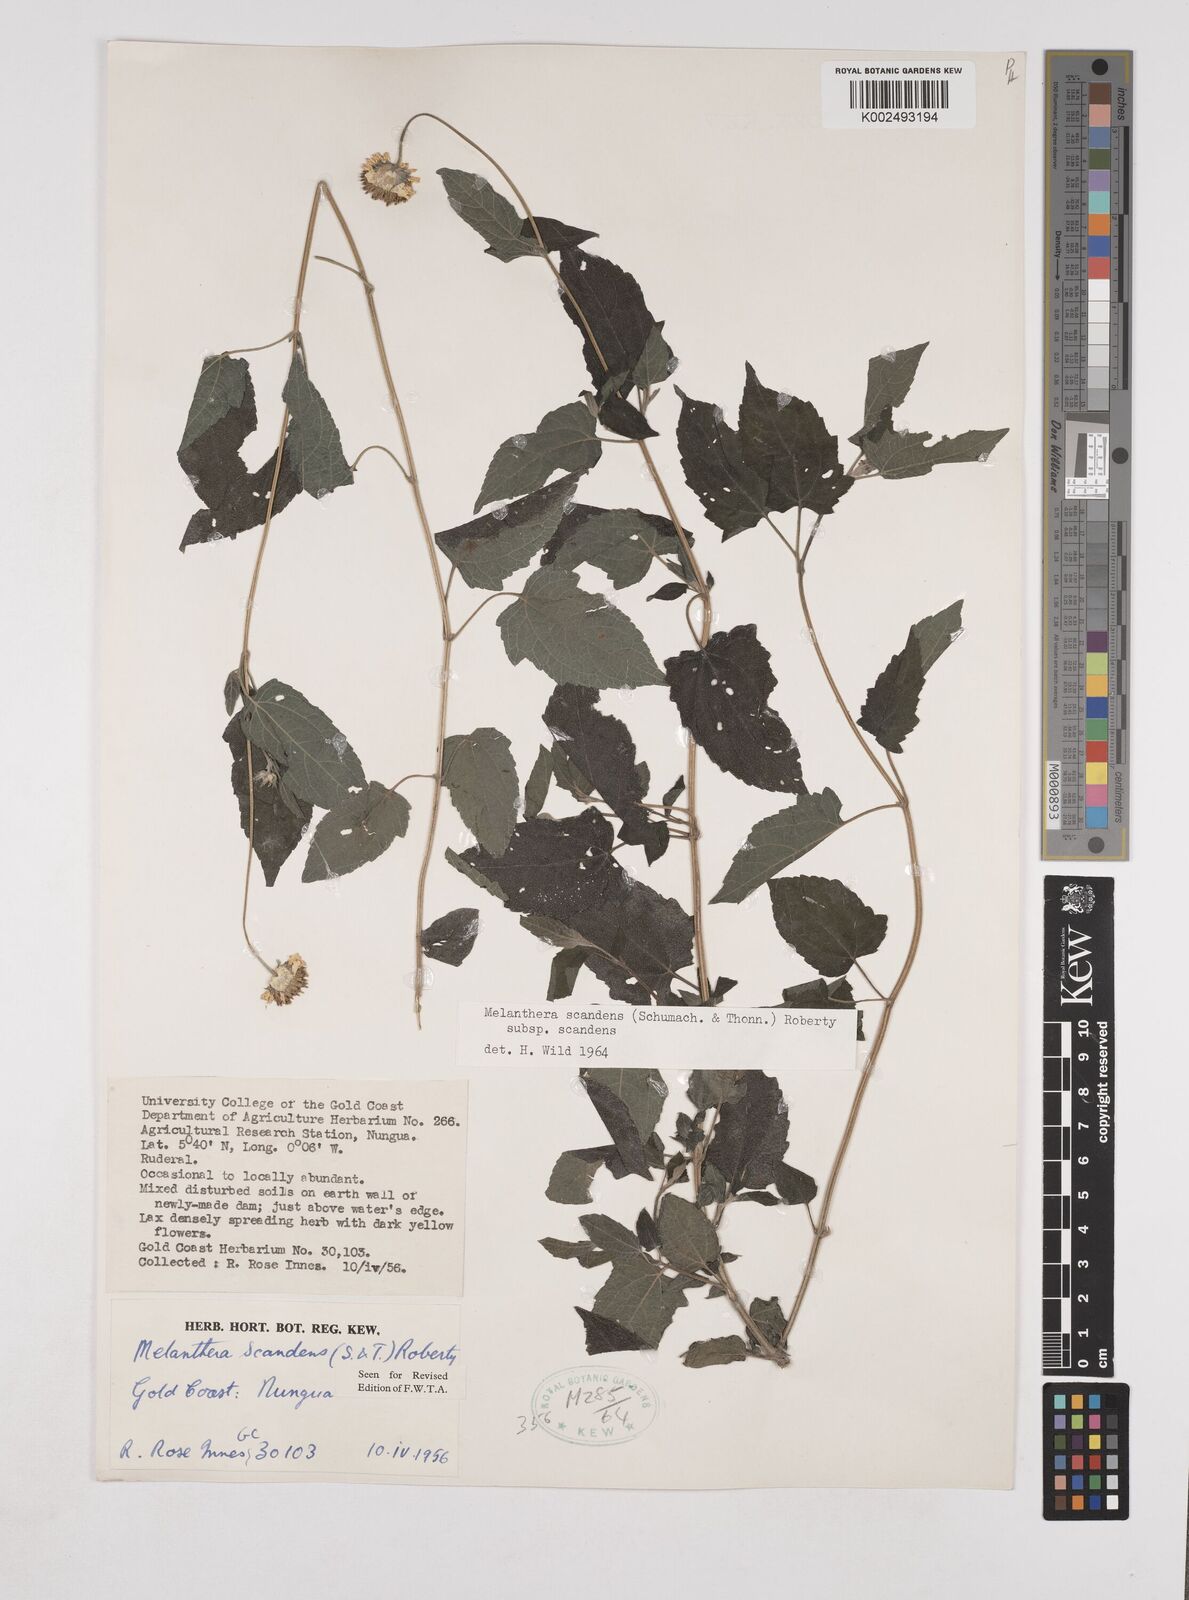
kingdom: Plantae
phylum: Tracheophyta
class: Magnoliopsida
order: Asterales
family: Asteraceae
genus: Lipotriche
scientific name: Lipotriche scandens
